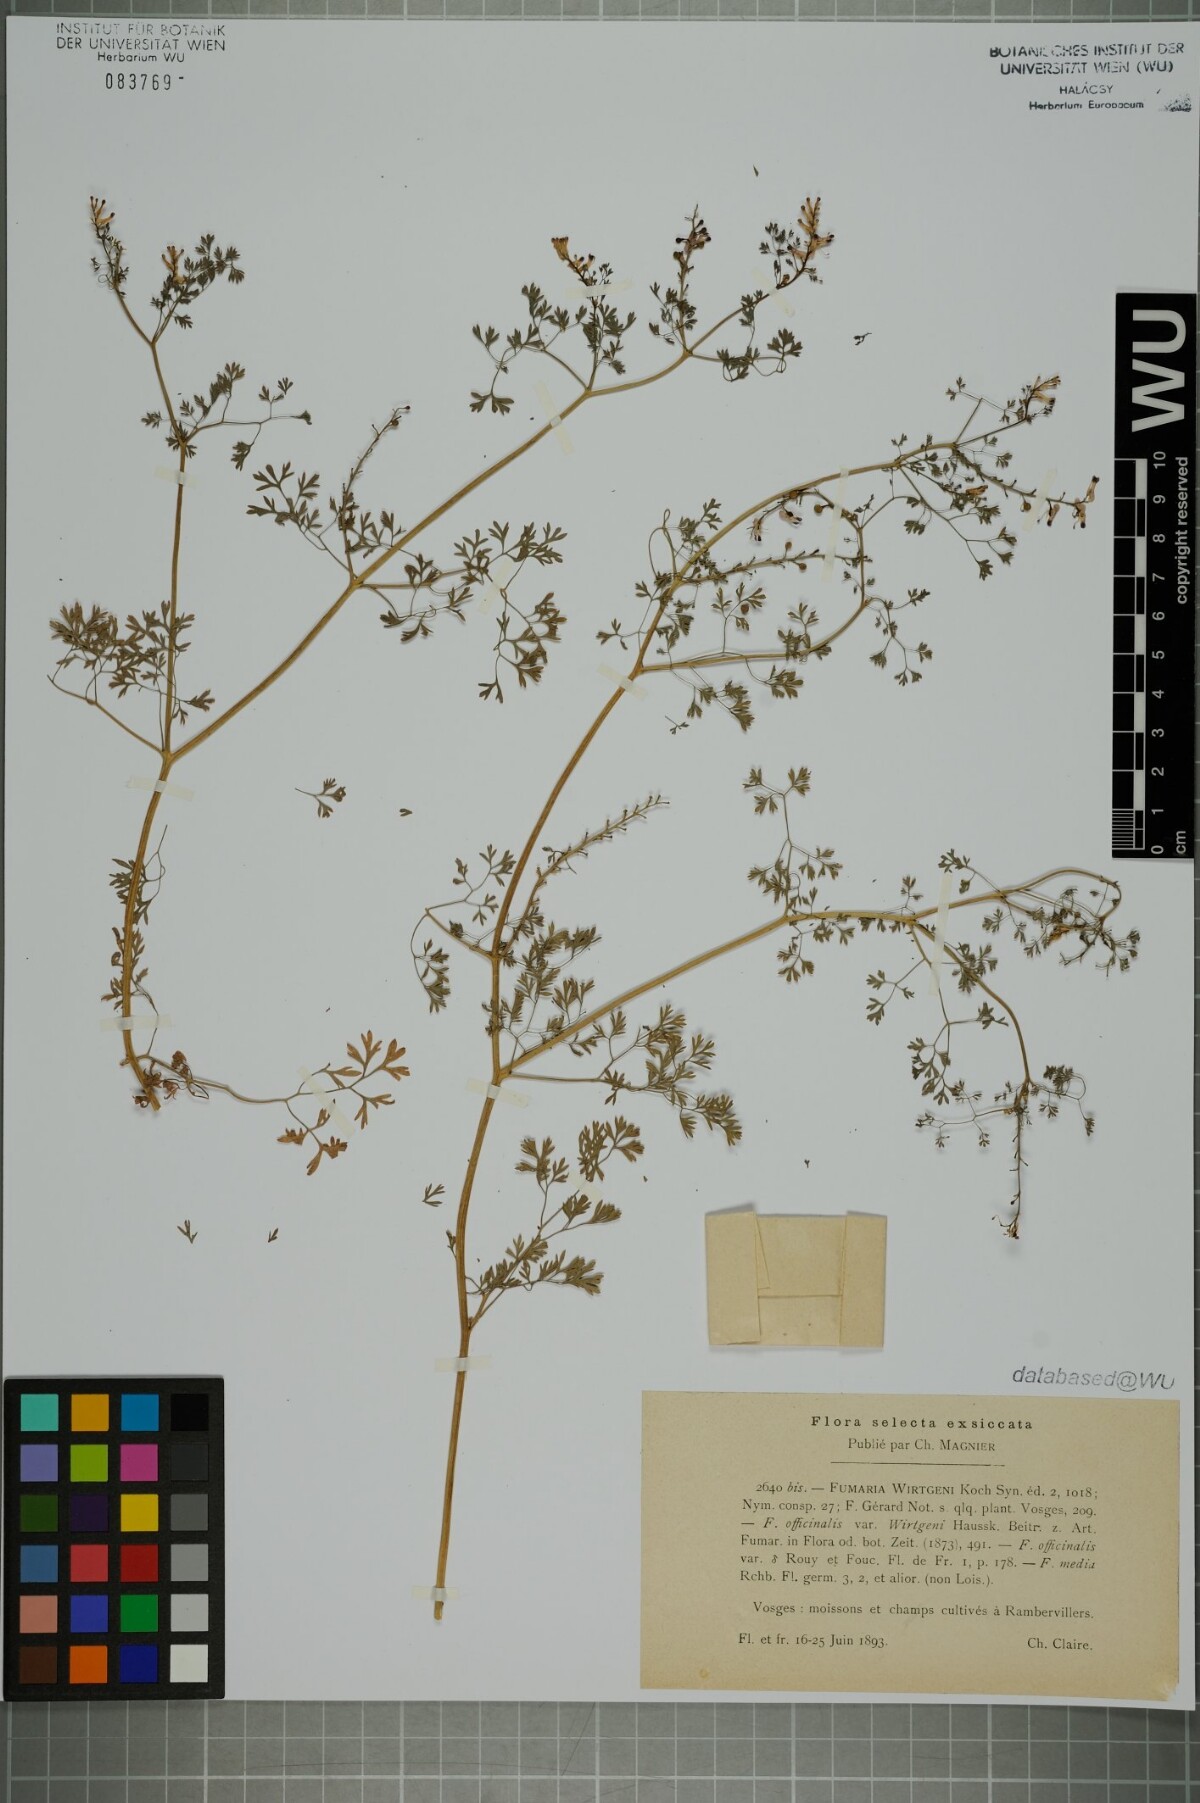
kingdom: Plantae
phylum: Tracheophyta
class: Magnoliopsida
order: Ranunculales
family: Papaveraceae
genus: Fumaria
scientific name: Fumaria wirtgenii
